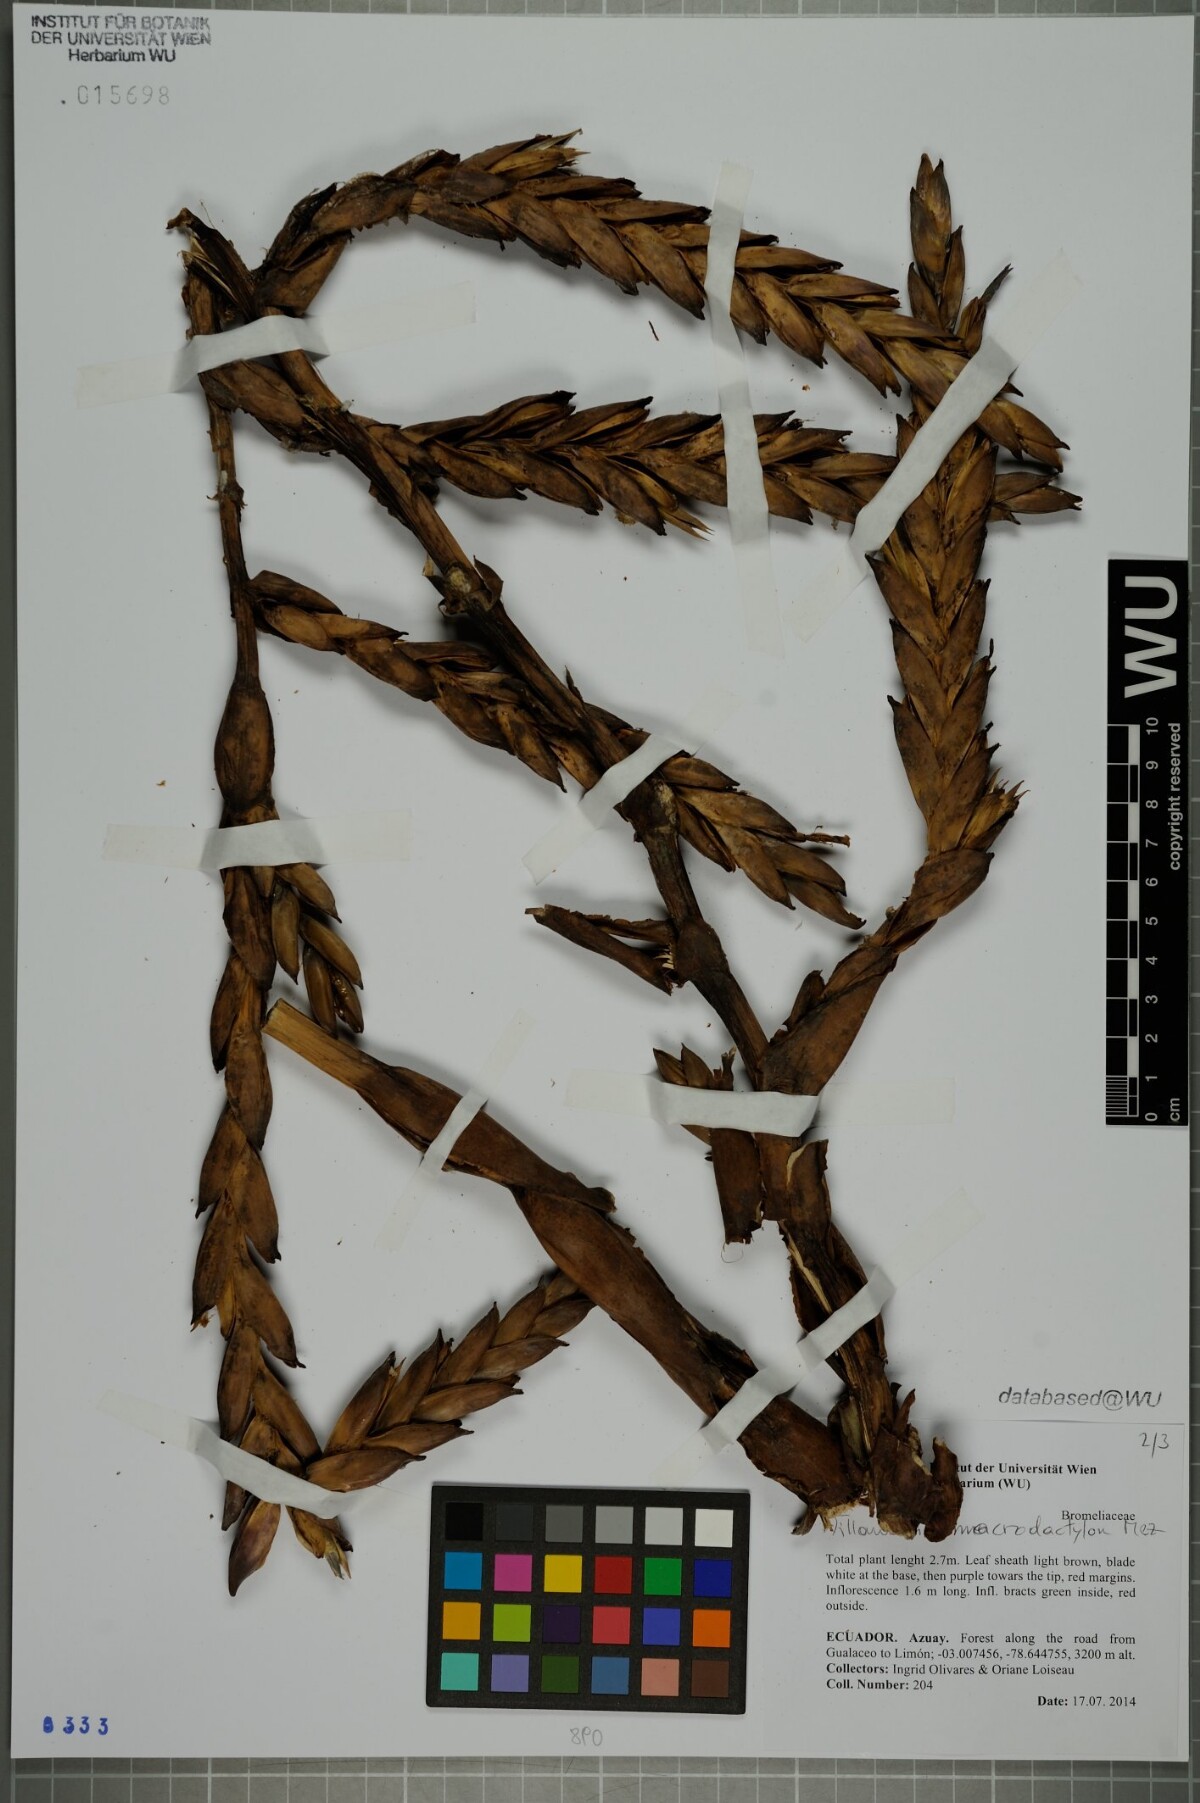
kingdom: Plantae
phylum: Tracheophyta
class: Liliopsida
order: Poales
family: Bromeliaceae
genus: Tillandsia
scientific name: Tillandsia macrodactylon
